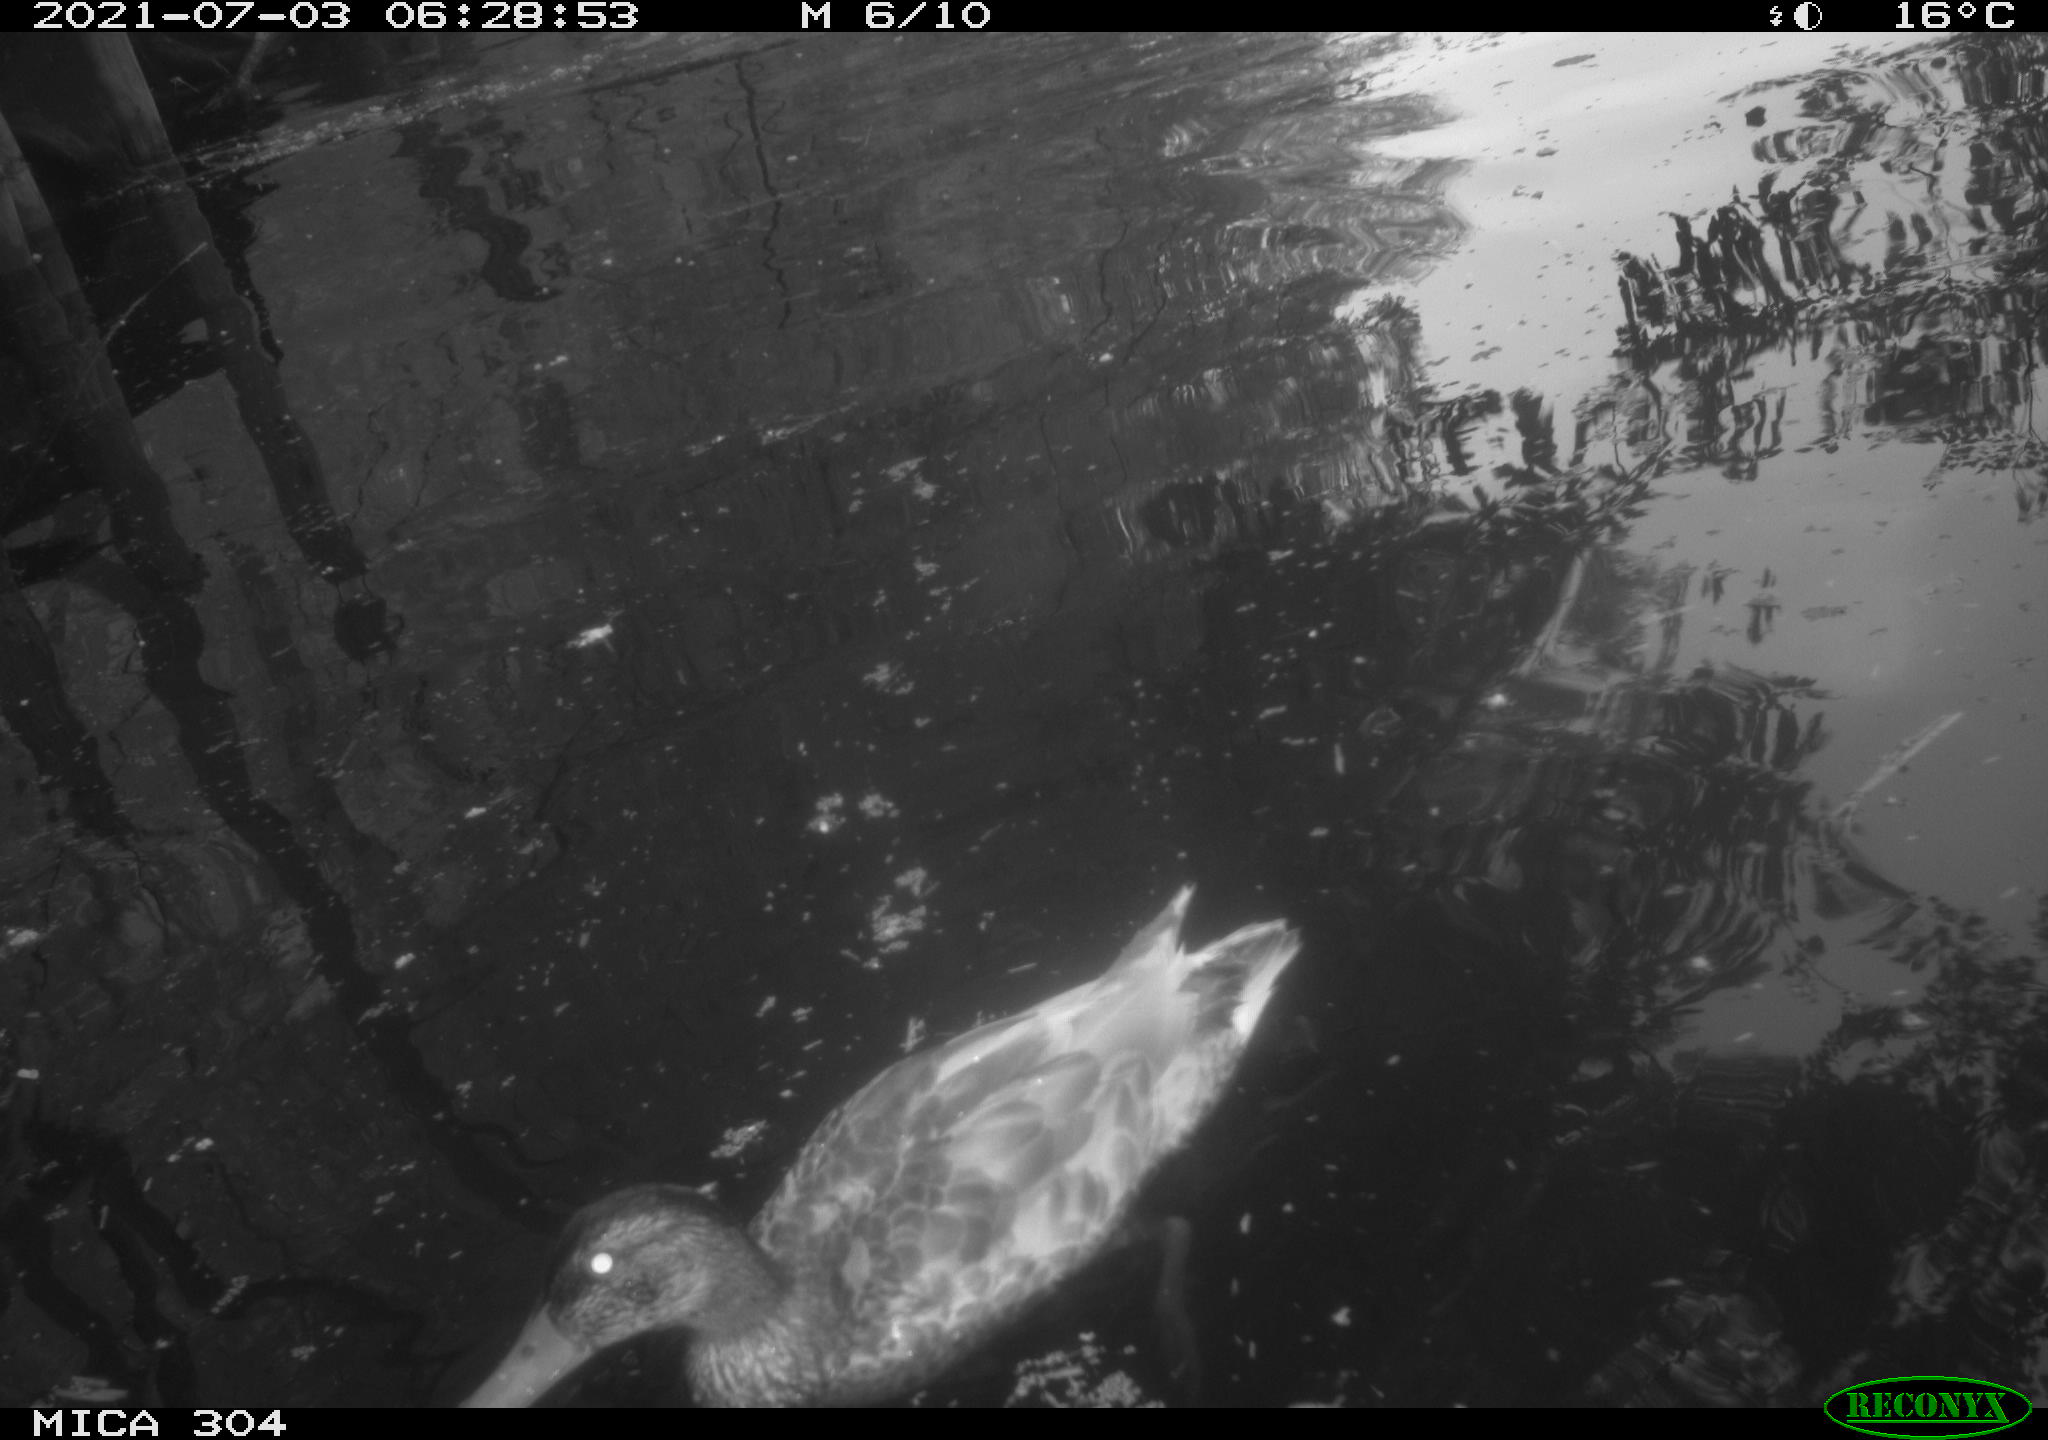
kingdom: Animalia
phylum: Chordata
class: Aves
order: Anseriformes
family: Anatidae
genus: Mareca
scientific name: Mareca strepera
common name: Gadwall
